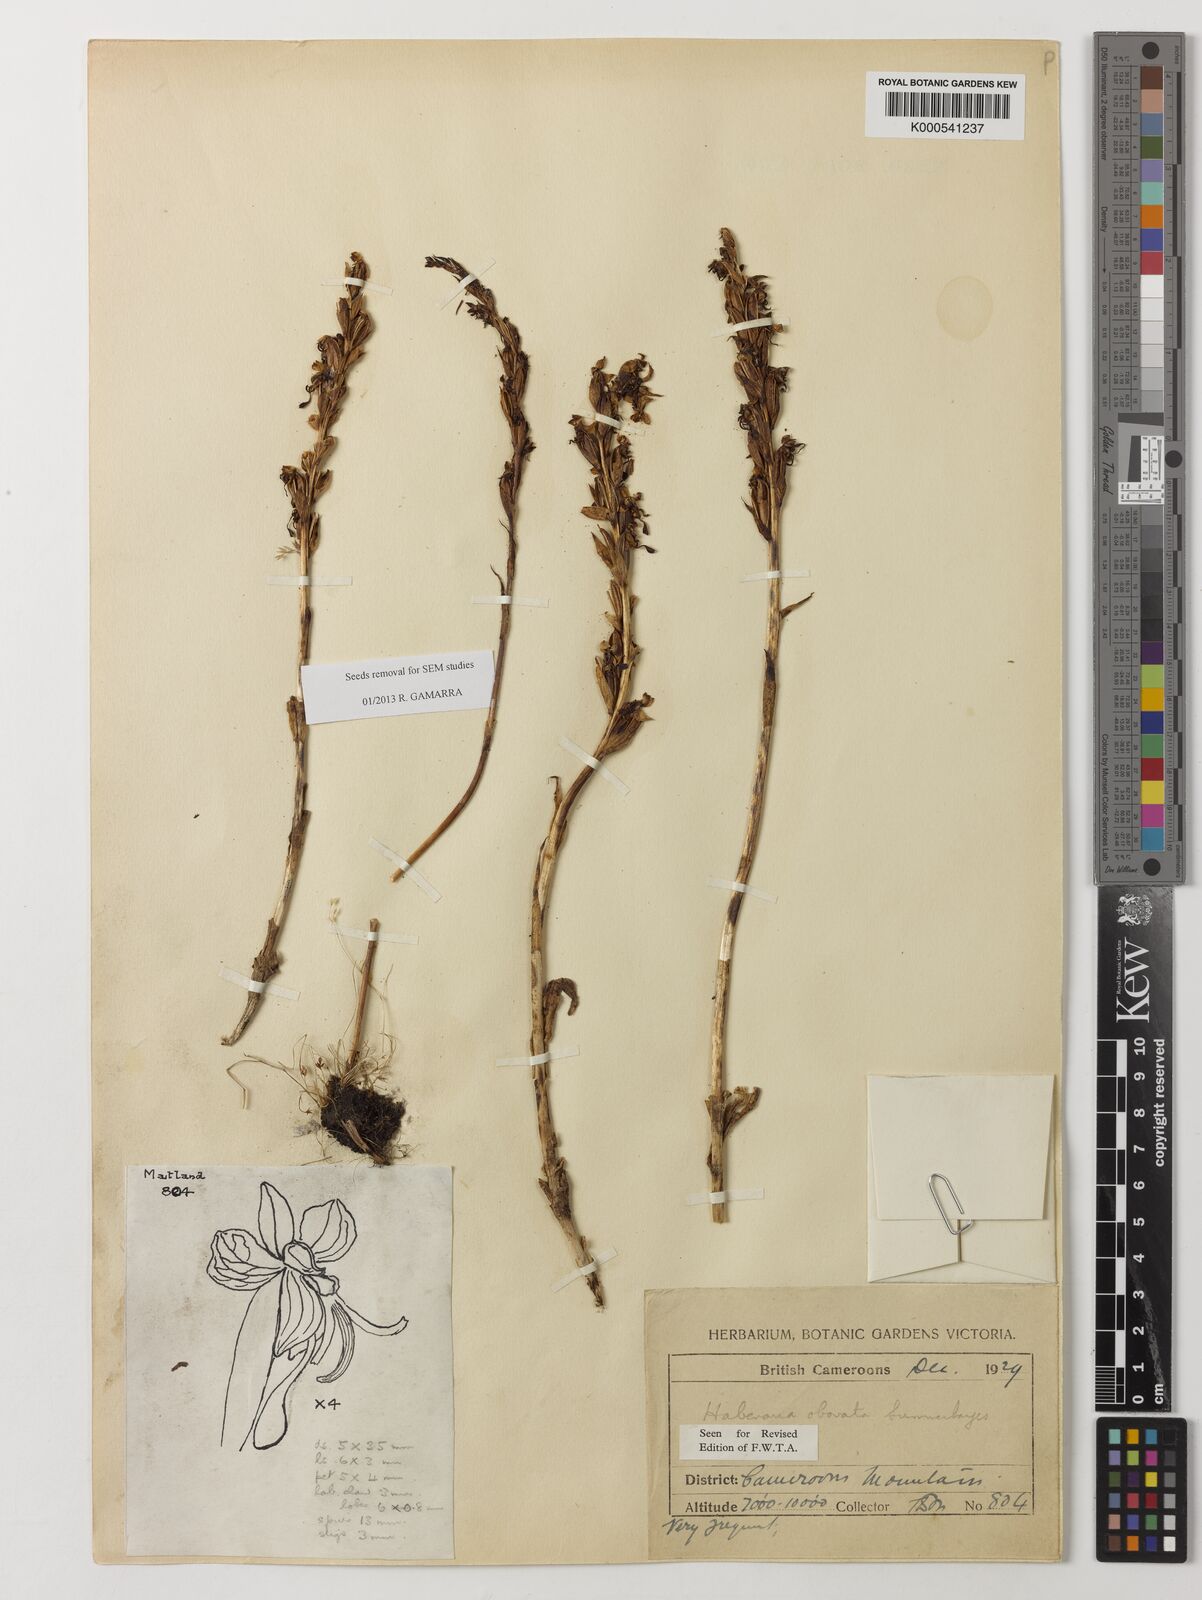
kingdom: Plantae
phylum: Tracheophyta
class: Liliopsida
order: Asparagales
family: Orchidaceae
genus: Habenaria
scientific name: Habenaria obovata
